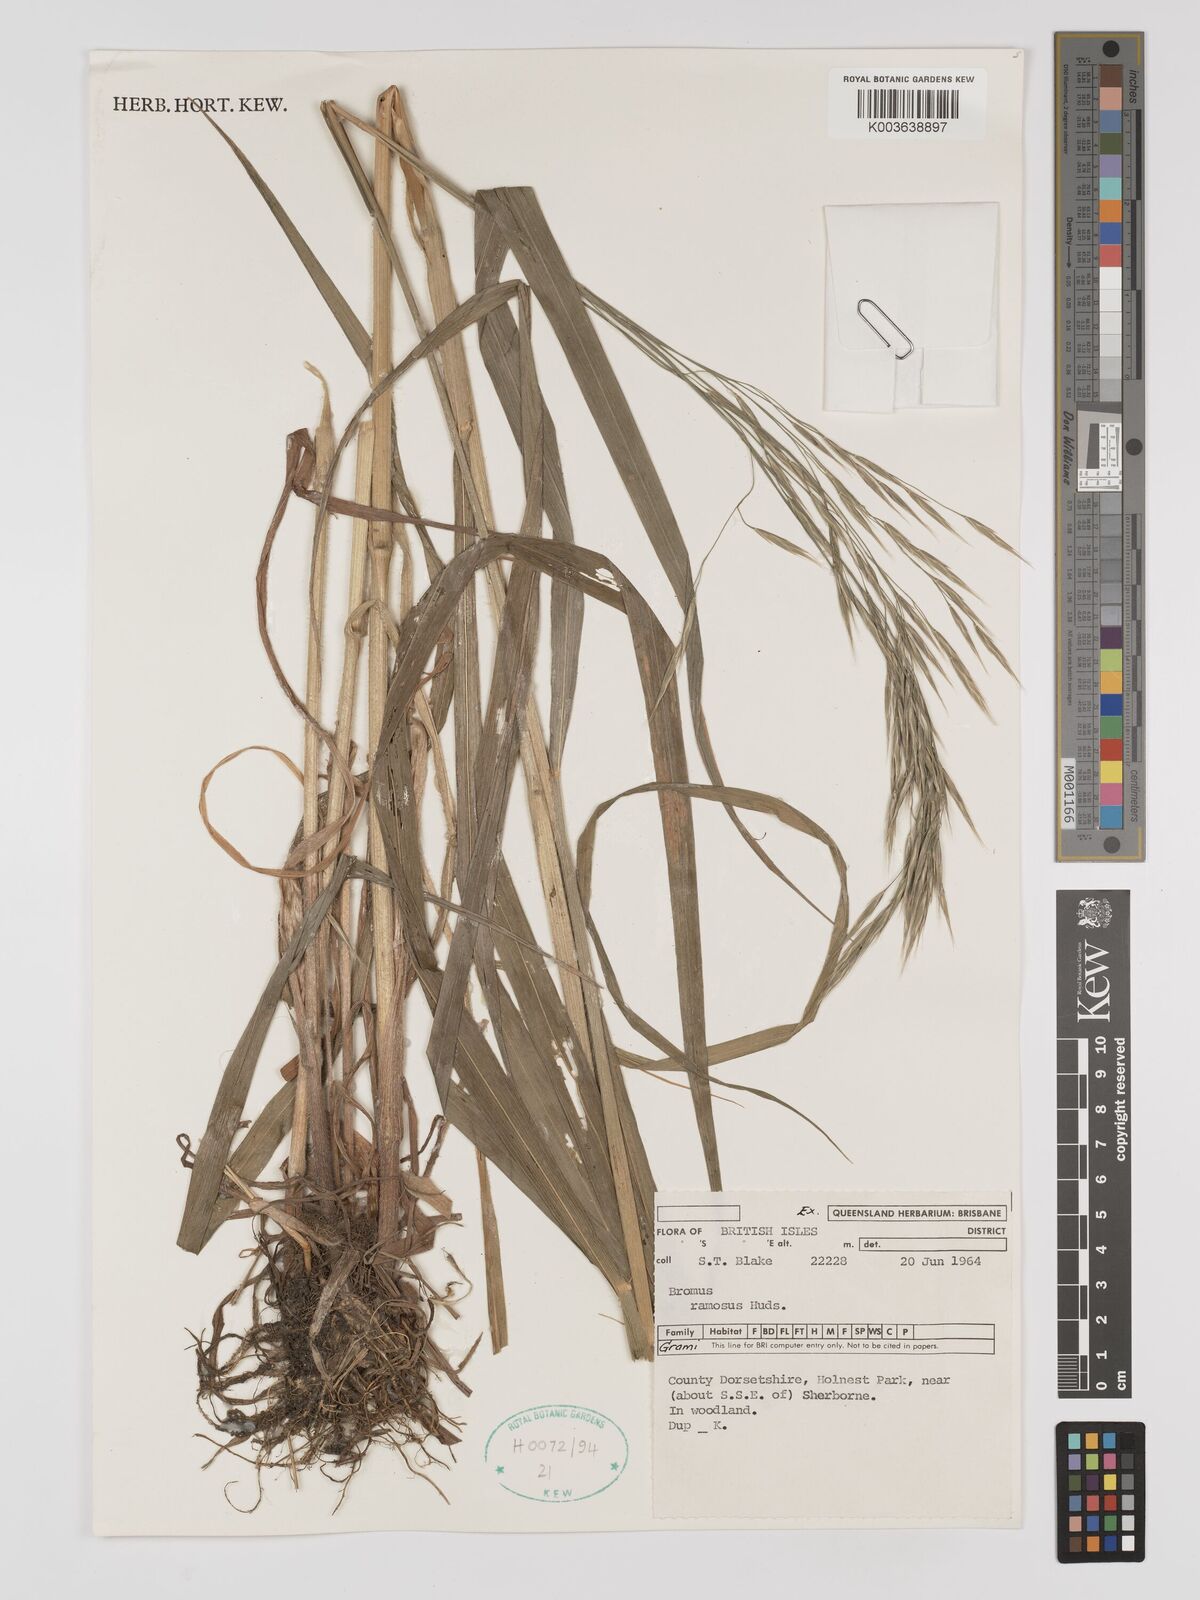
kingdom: Plantae
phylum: Tracheophyta
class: Liliopsida
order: Poales
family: Poaceae
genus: Brachypodium
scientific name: Brachypodium retusum
